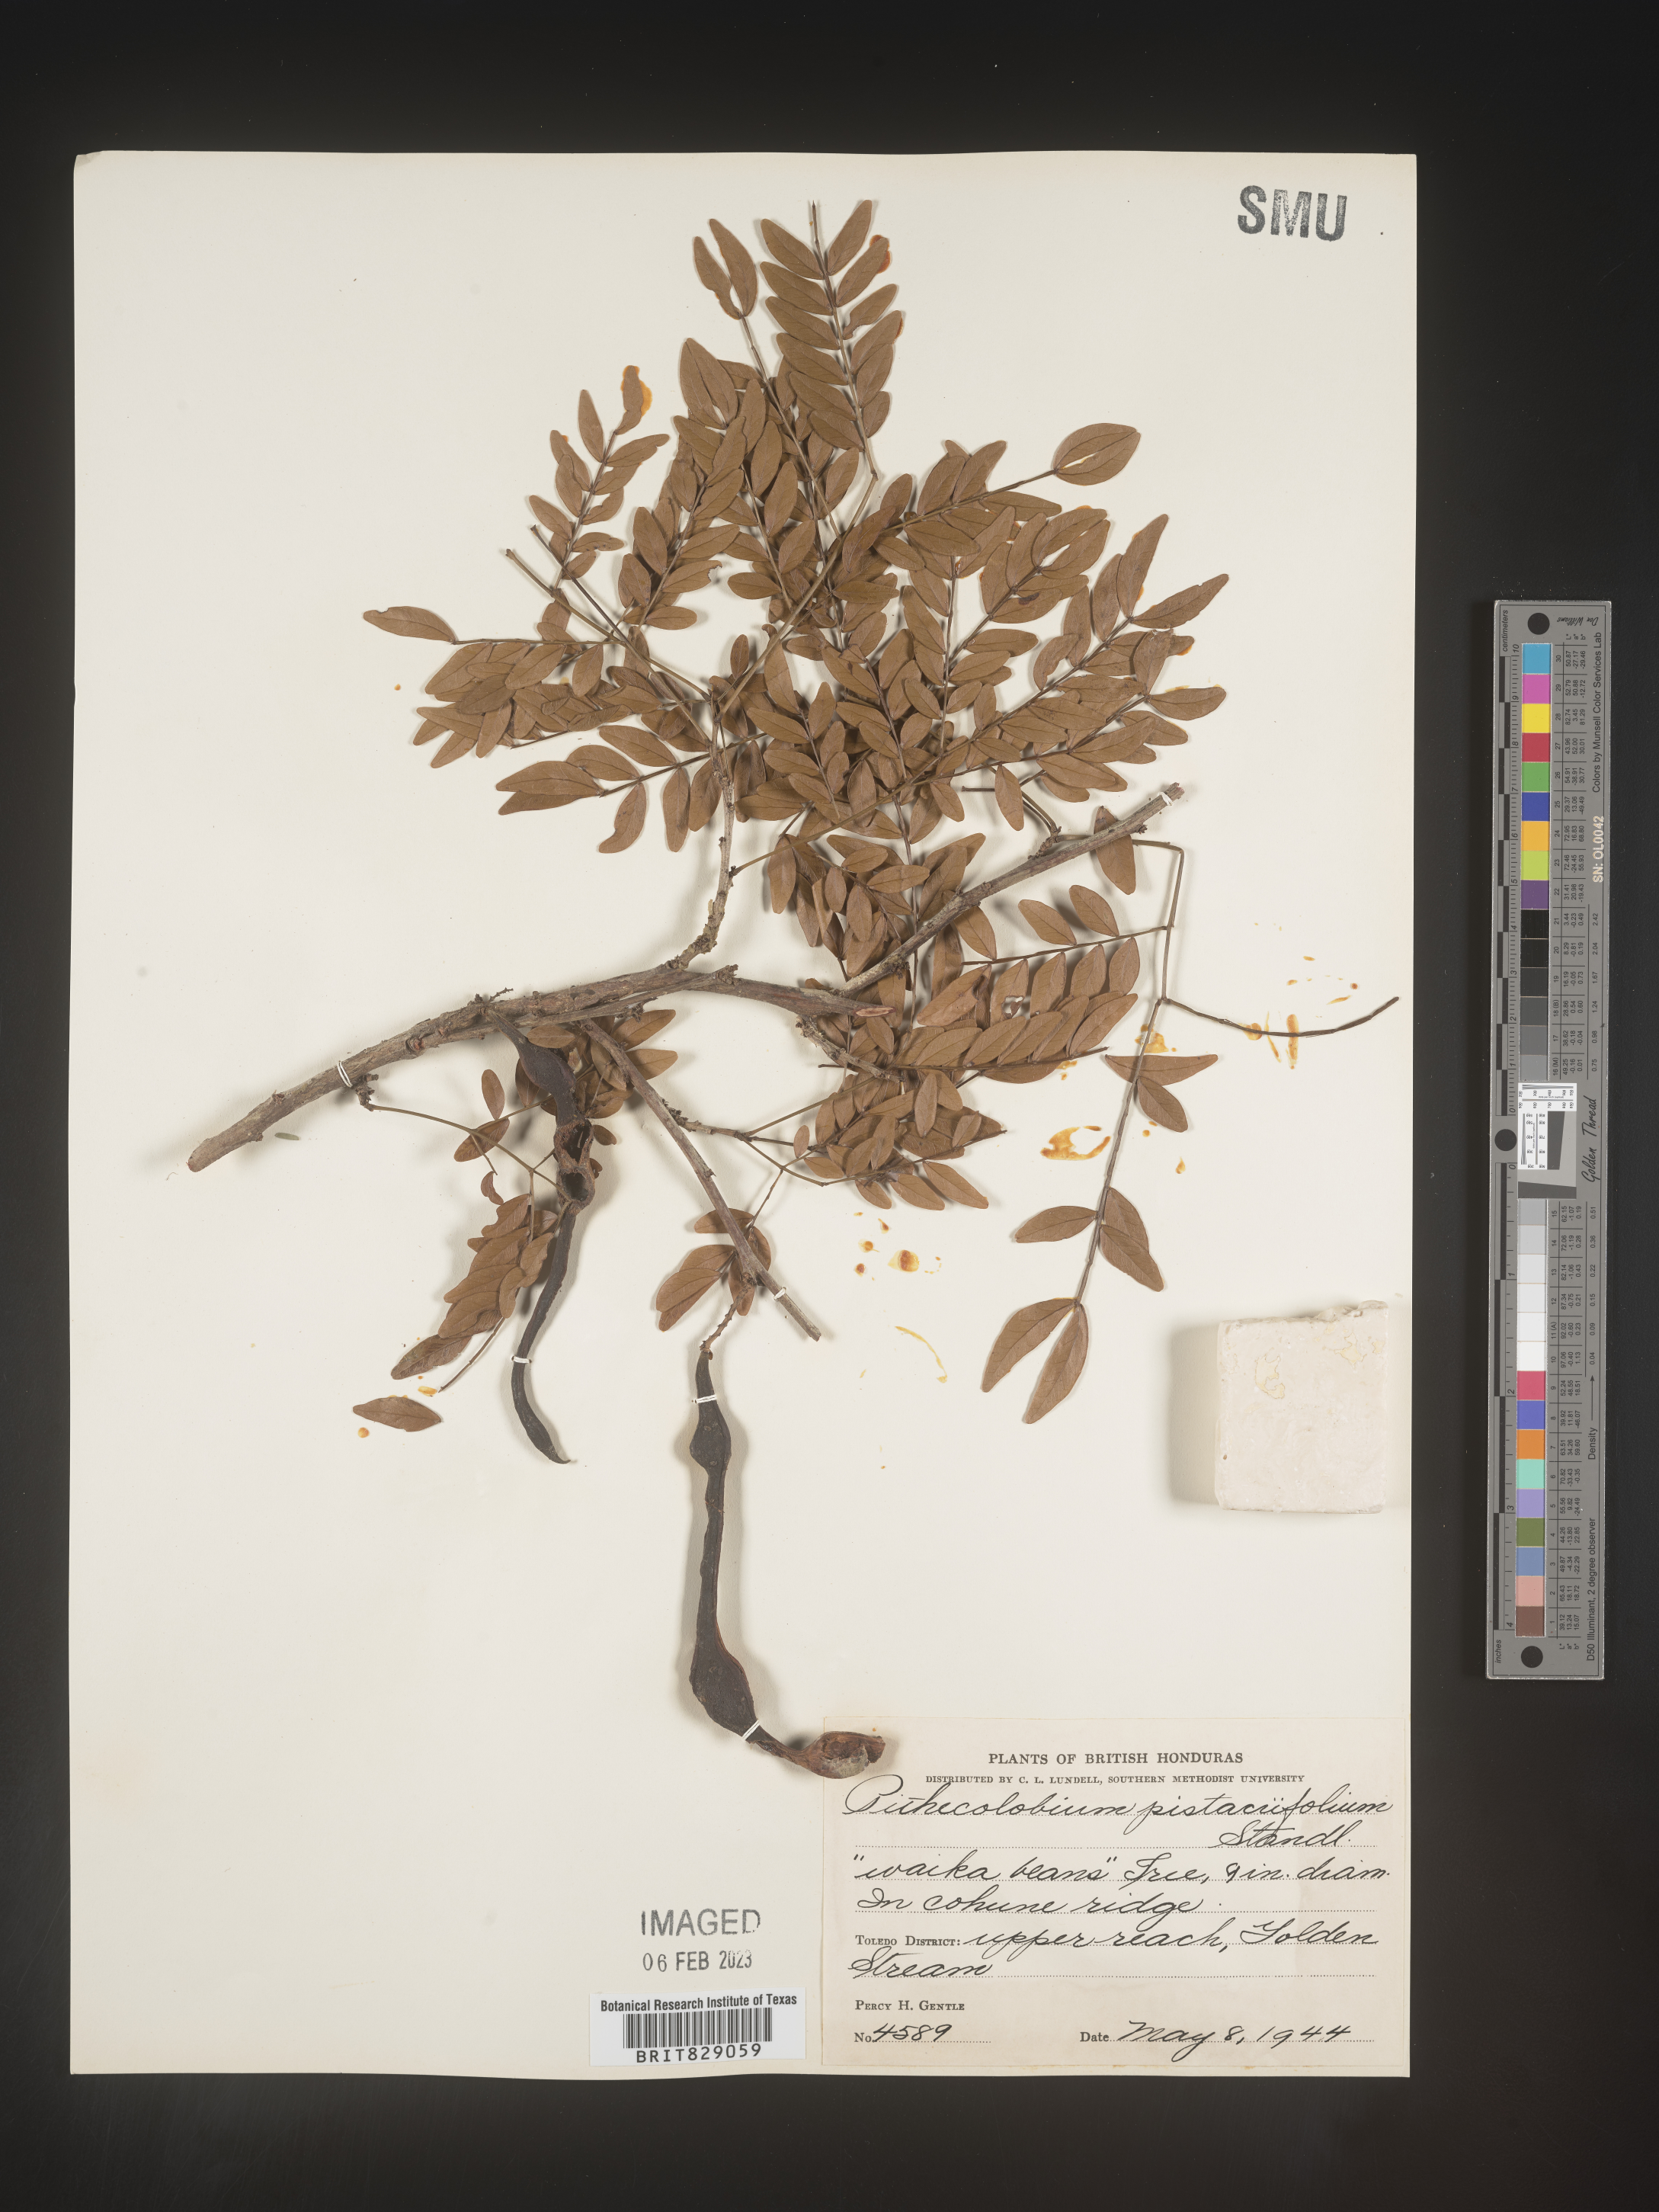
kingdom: Plantae
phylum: Tracheophyta
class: Magnoliopsida
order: Fabales
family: Fabaceae
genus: Pithecellobium
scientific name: Pithecellobium
